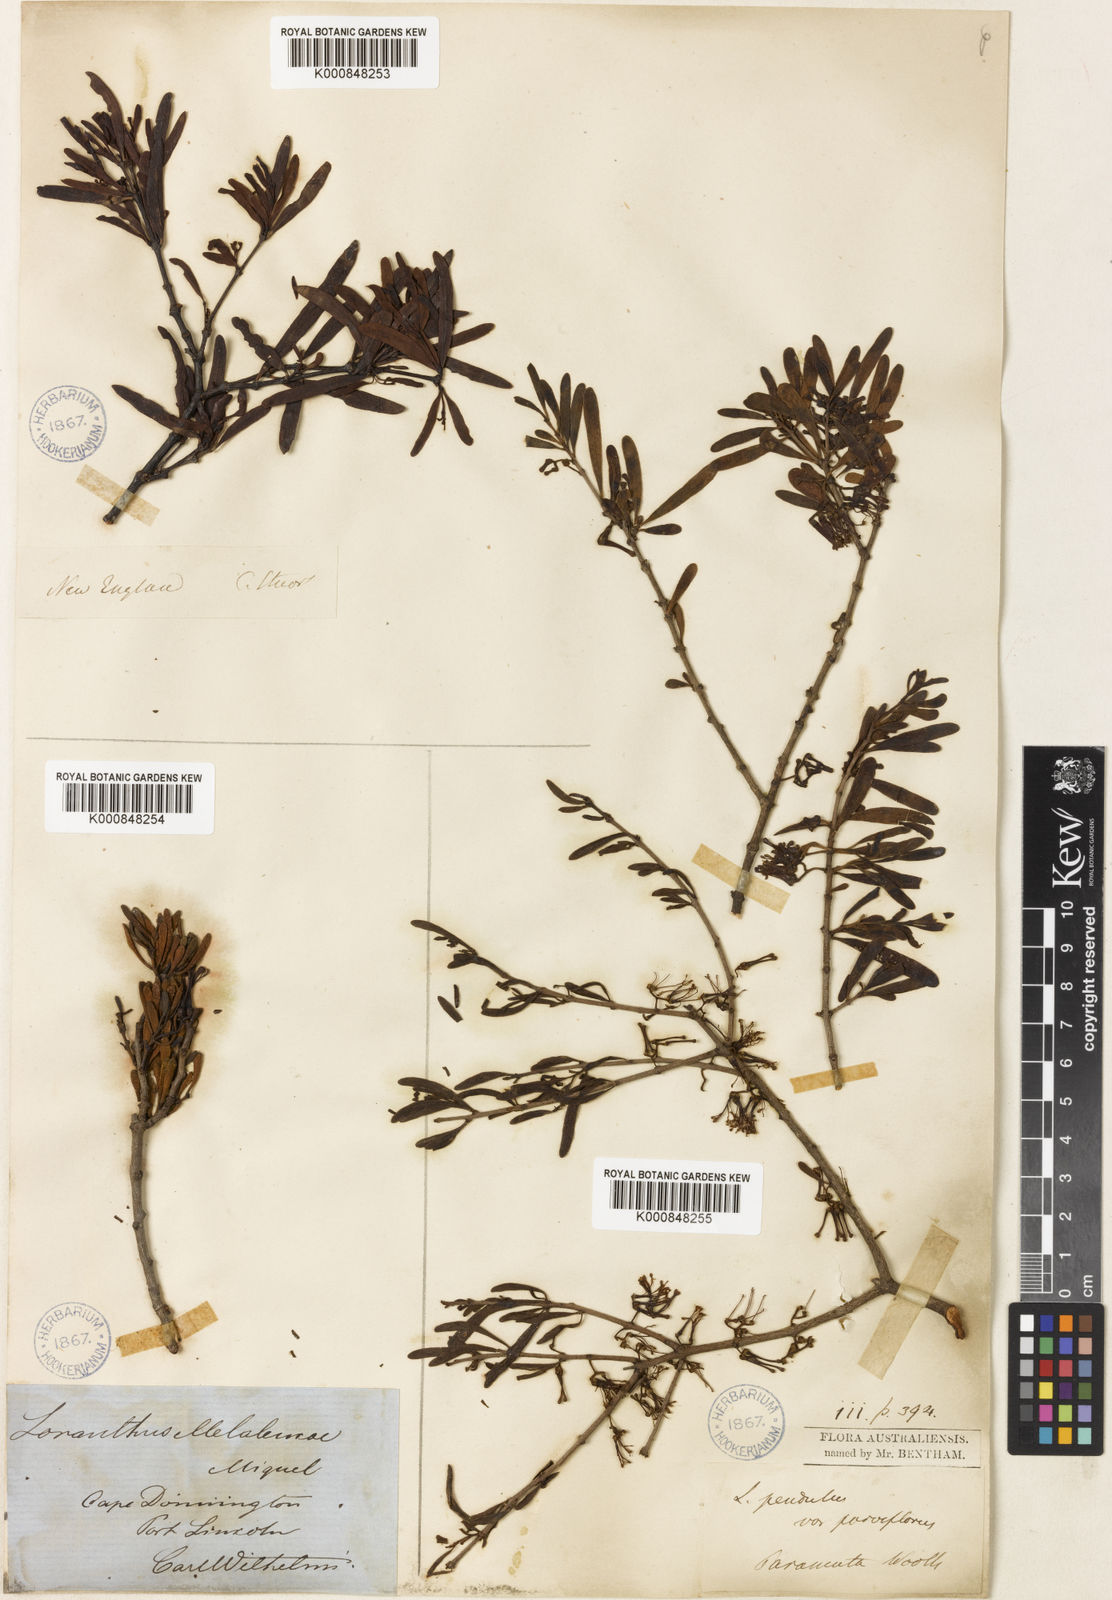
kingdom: Plantae
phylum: Tracheophyta
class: Magnoliopsida
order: Santalales
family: Loranthaceae
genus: Amyema
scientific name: Amyema melaleucae
